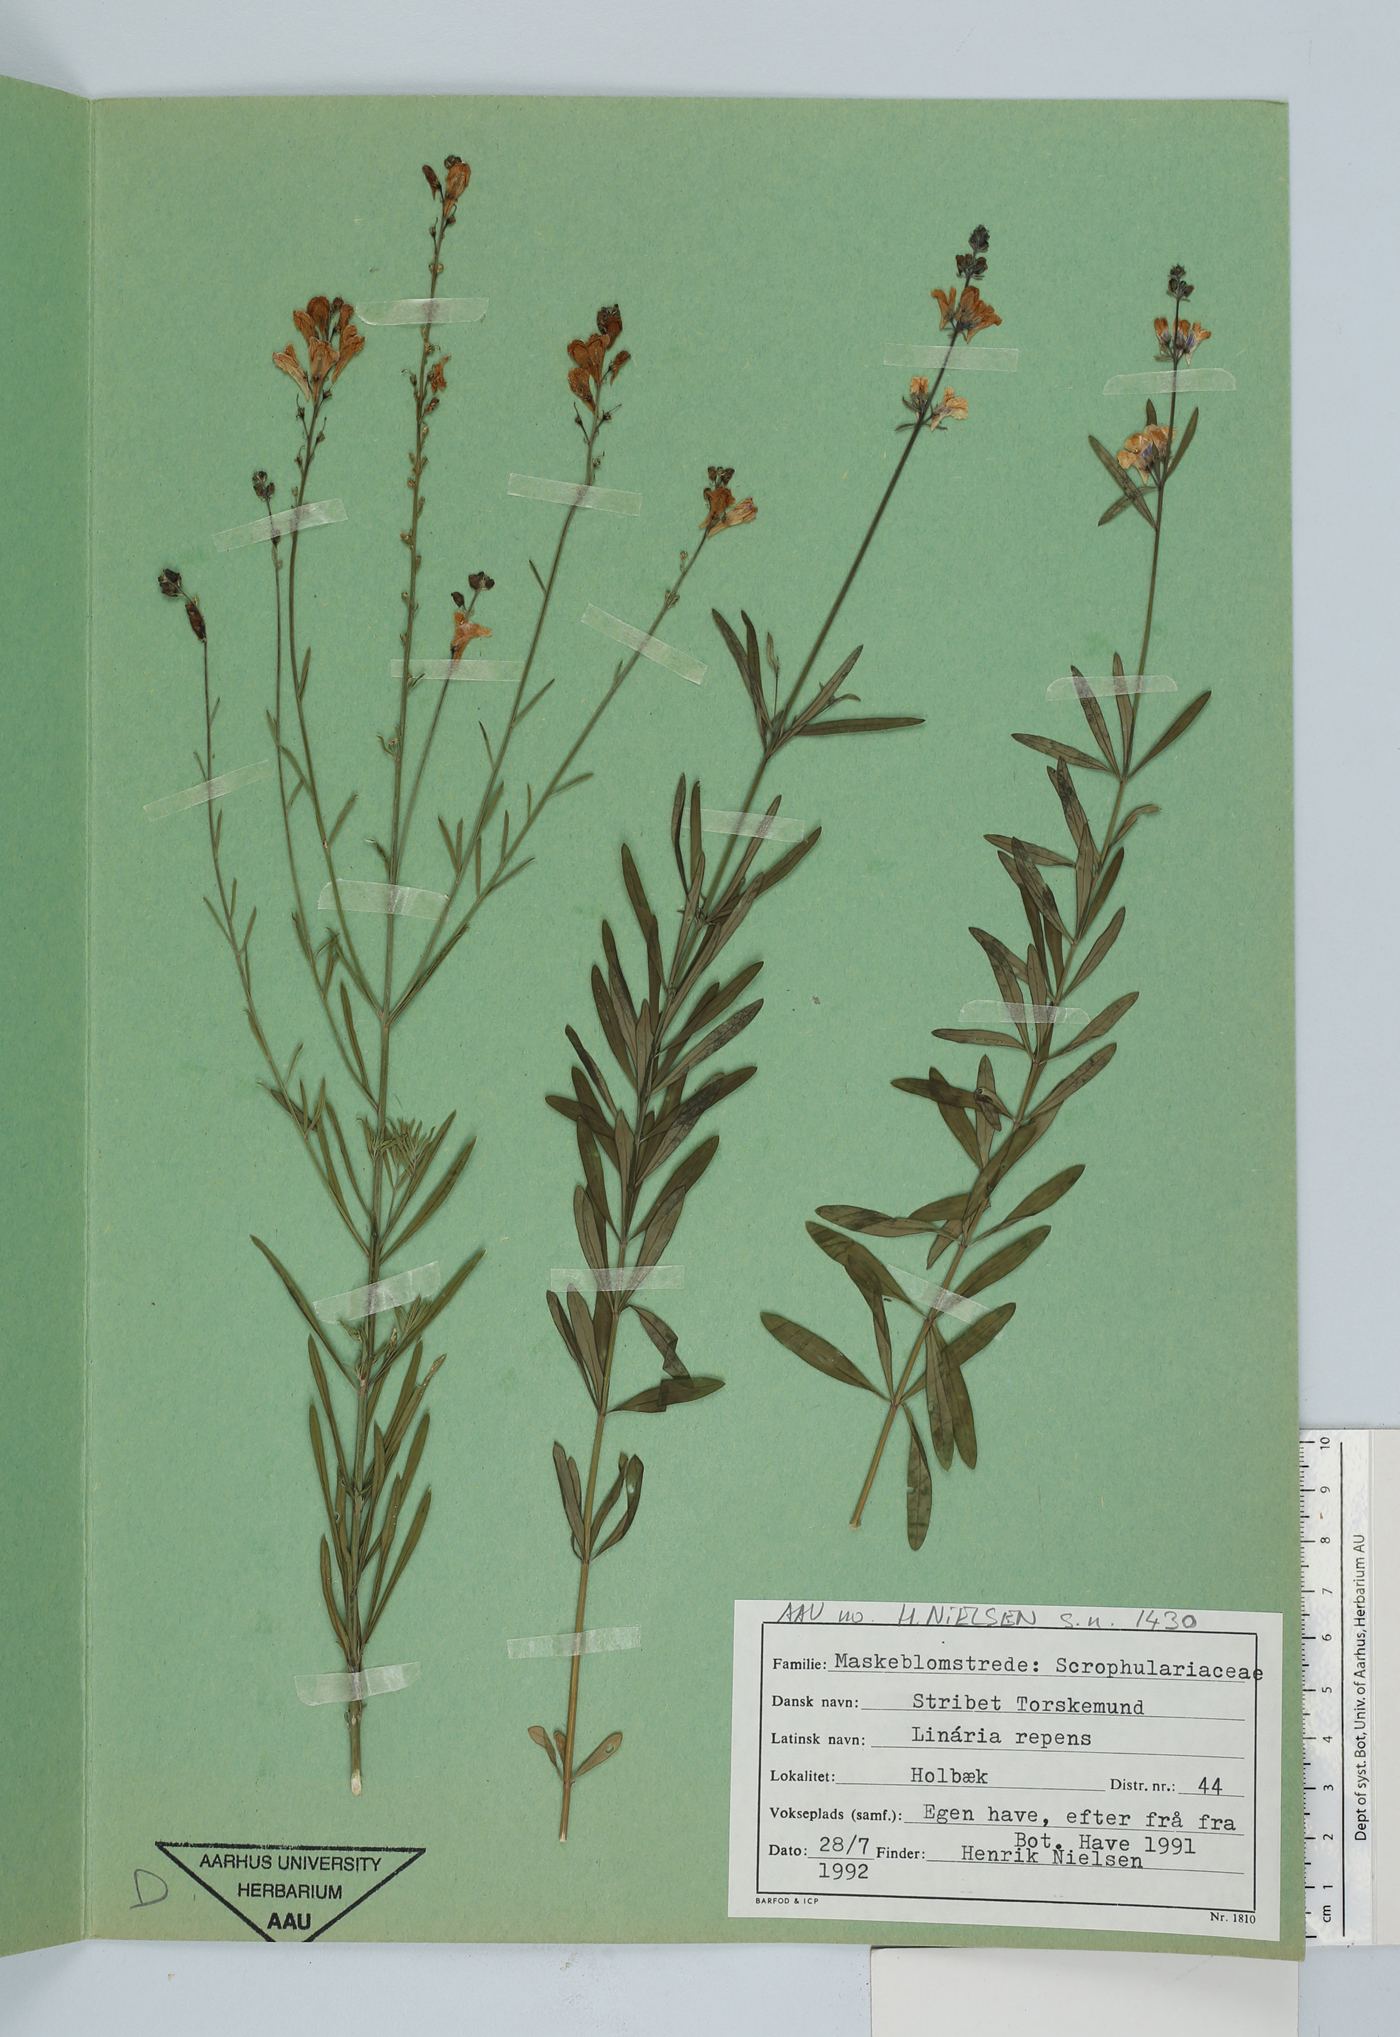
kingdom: Plantae
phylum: Tracheophyta
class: Magnoliopsida
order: Lamiales
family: Plantaginaceae
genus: Linaria
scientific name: Linaria repens
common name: Pale toadflax
